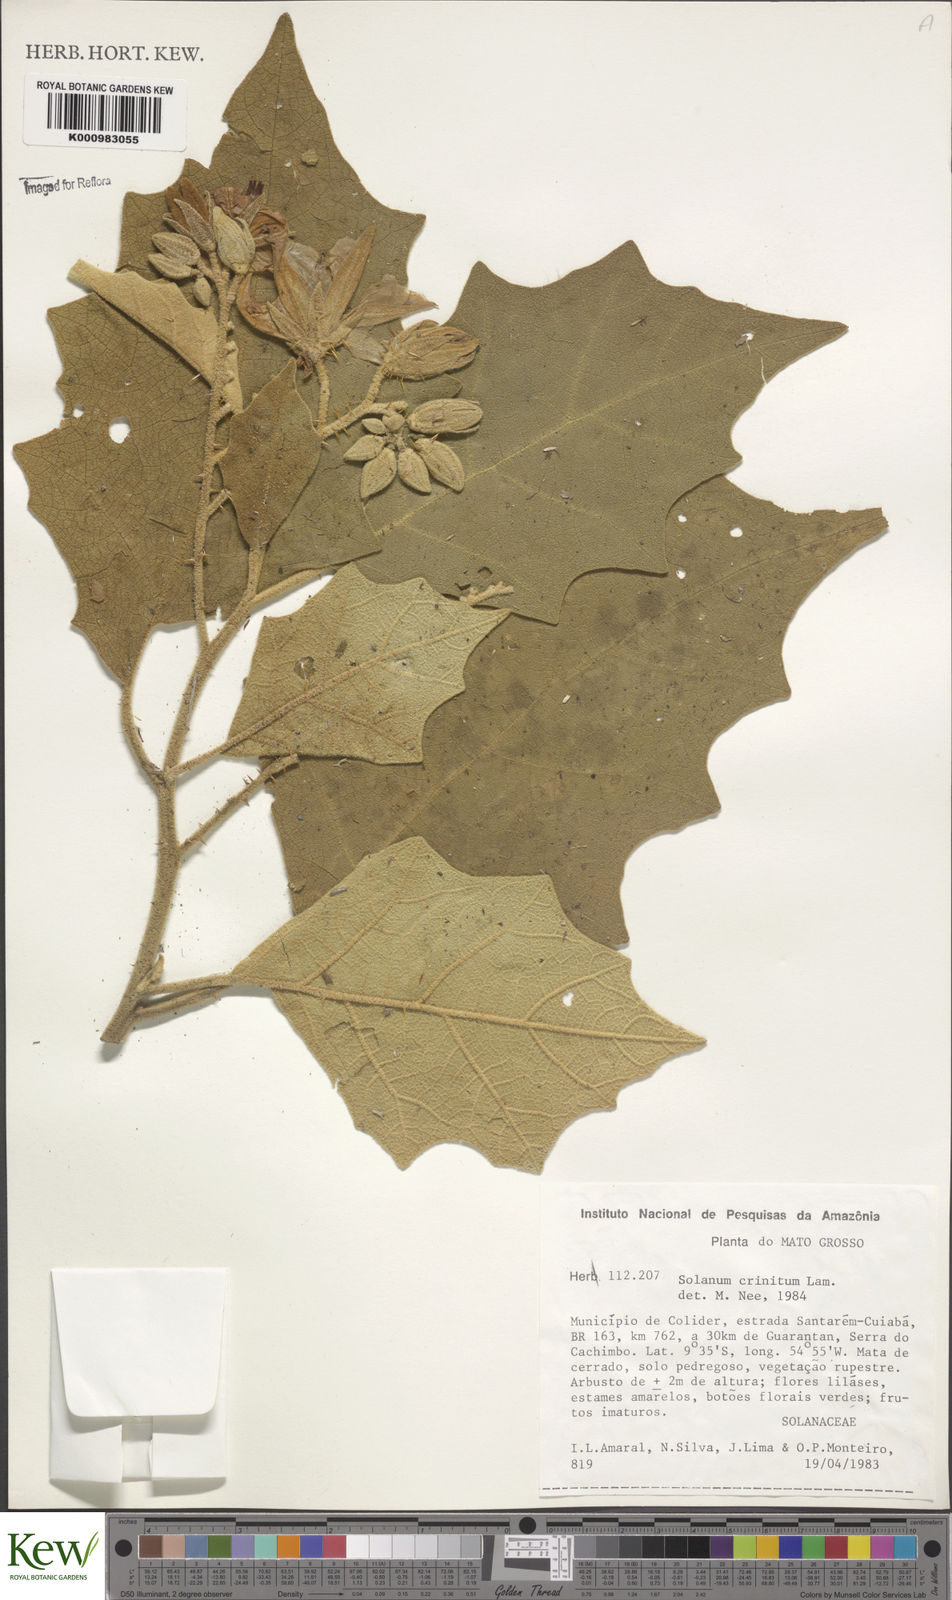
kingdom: Plantae
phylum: Tracheophyta
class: Magnoliopsida
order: Solanales
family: Solanaceae
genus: Solanum
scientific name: Solanum crinitum
